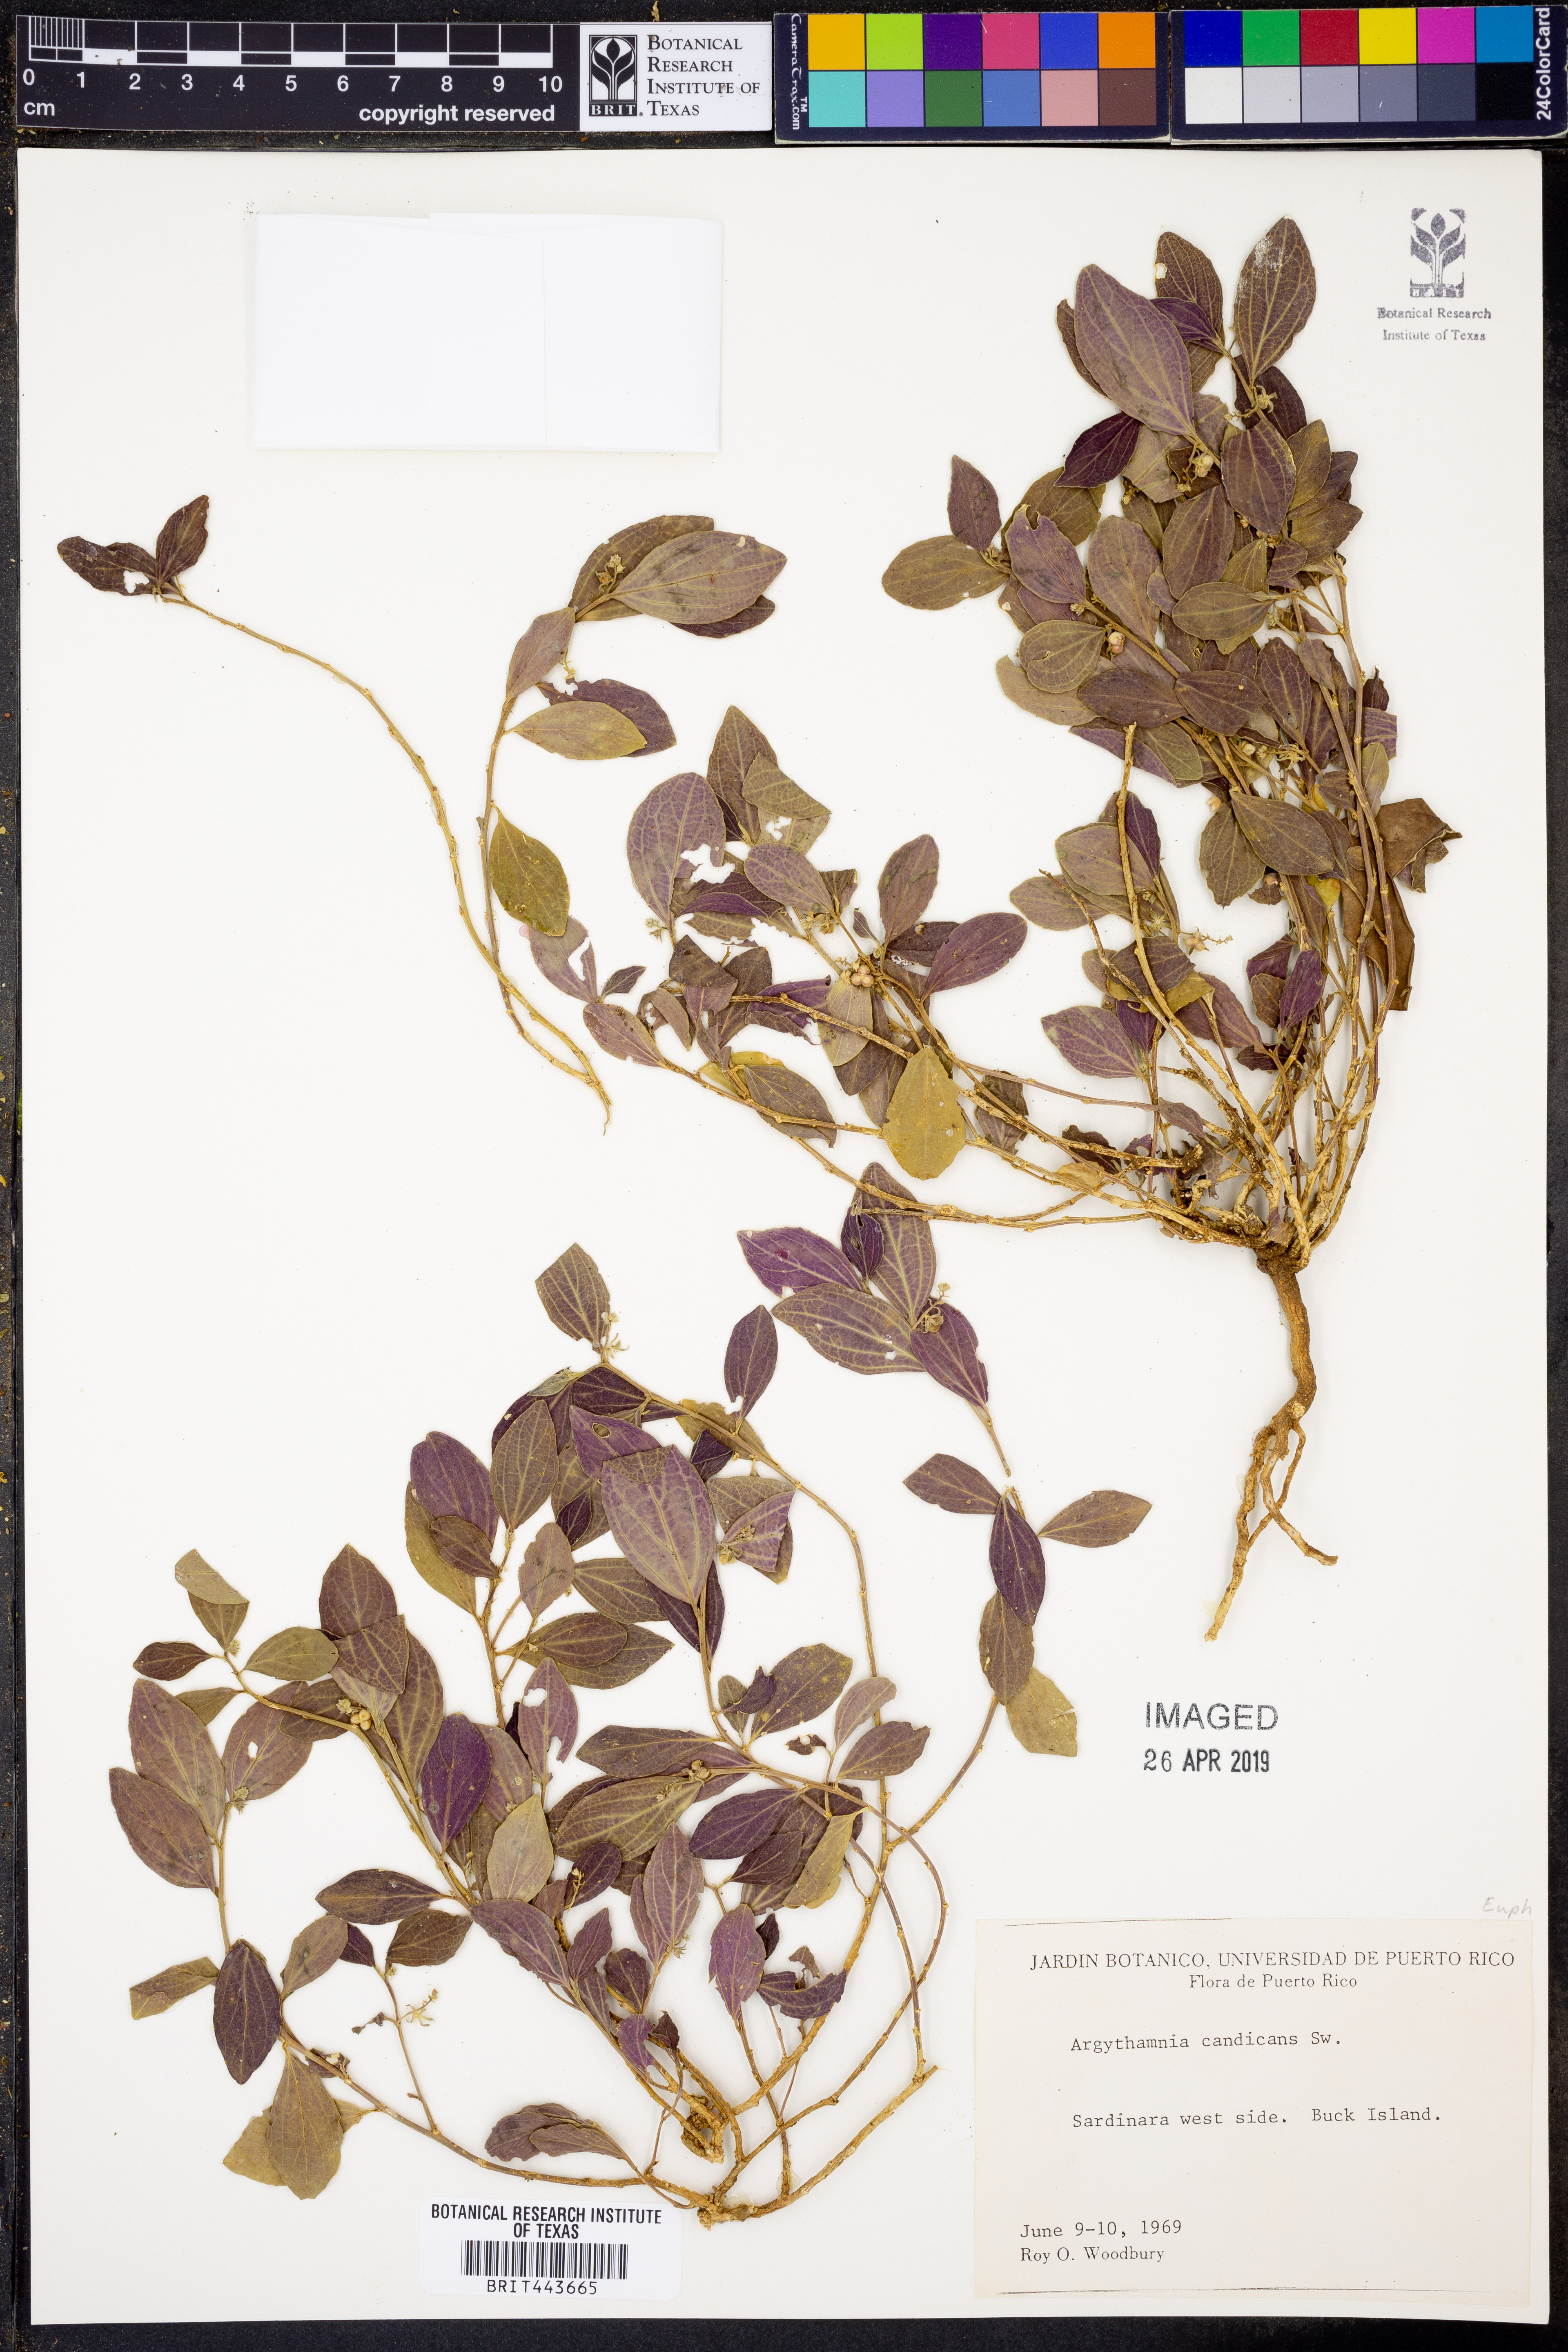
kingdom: Plantae
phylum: Tracheophyta
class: Magnoliopsida
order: Malpighiales
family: Euphorbiaceae
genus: Argythamnia
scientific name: Argythamnia candicans
